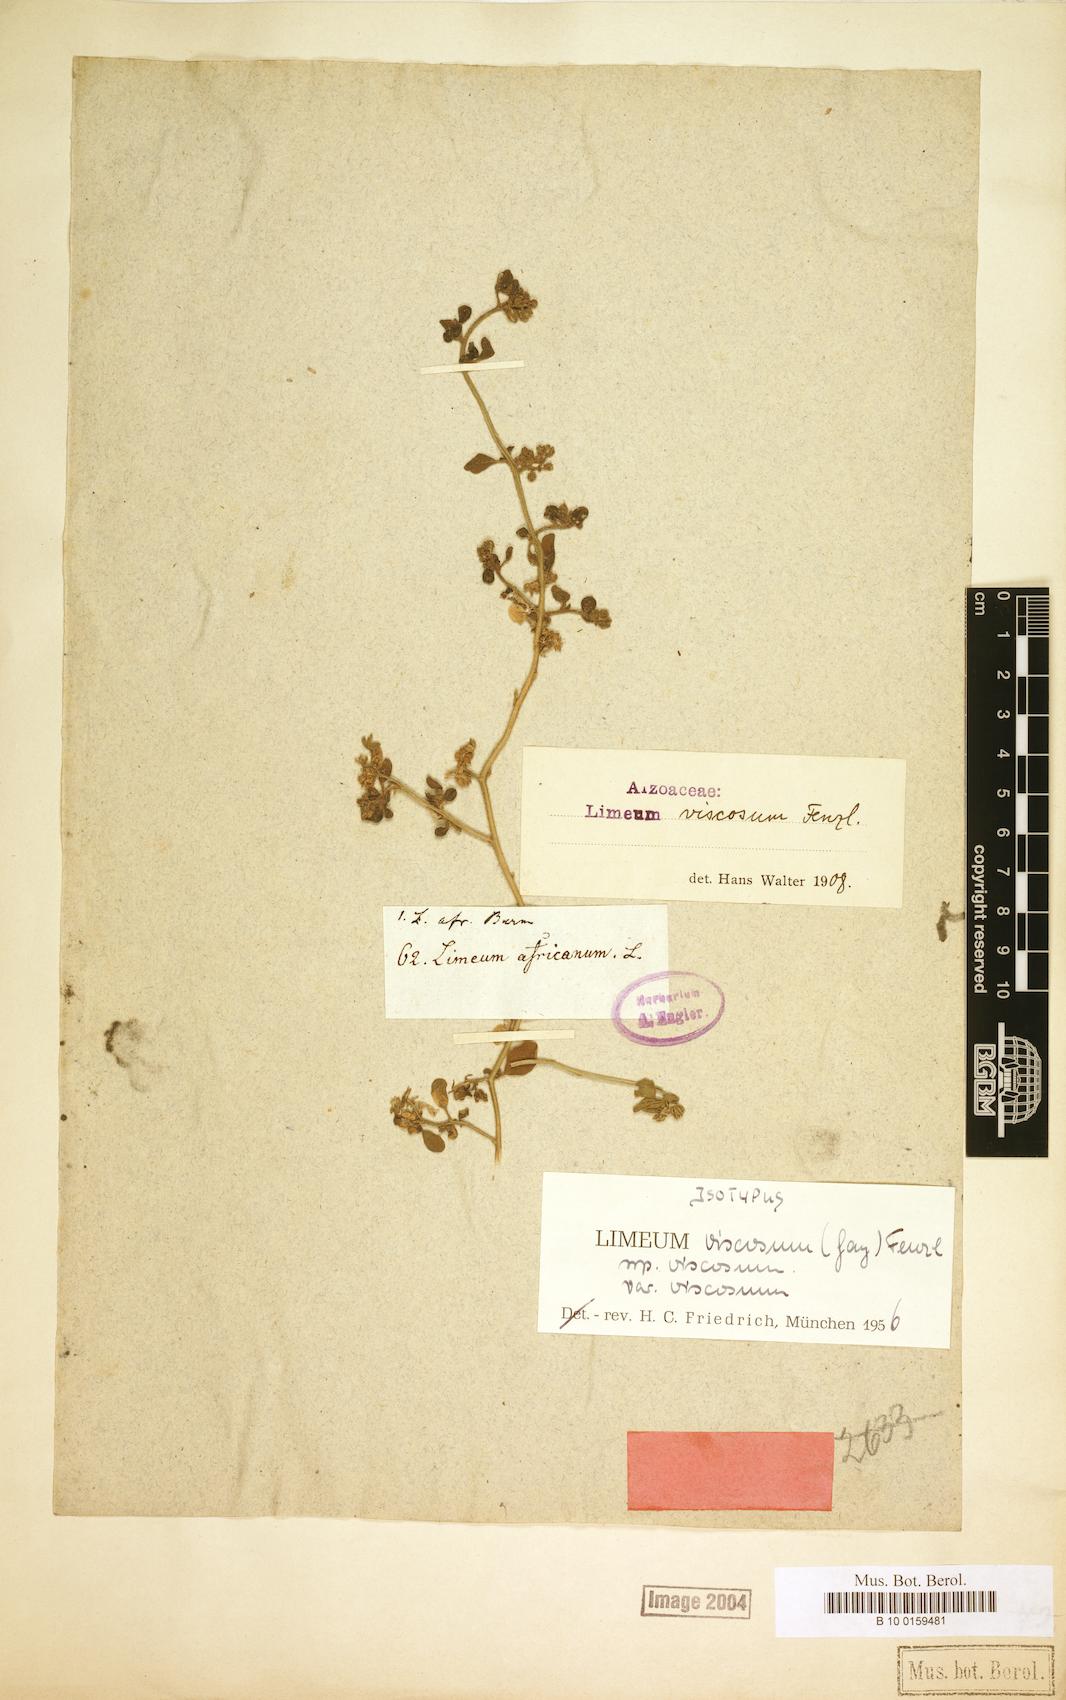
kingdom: Plantae
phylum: Tracheophyta
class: Magnoliopsida
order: Caryophyllales
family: Limeaceae
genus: Limeum
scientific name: Limeum viscosum
